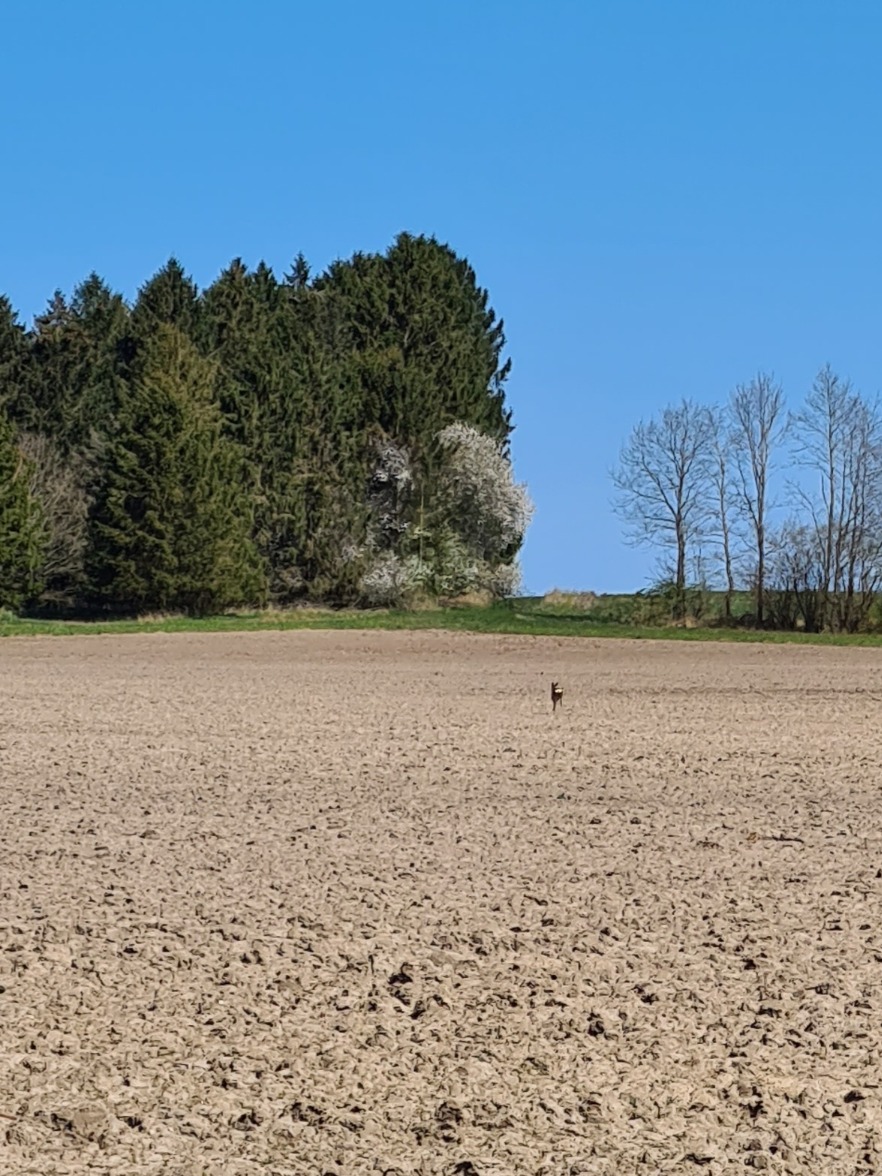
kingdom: Animalia
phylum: Chordata
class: Mammalia
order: Artiodactyla
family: Cervidae
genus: Capreolus
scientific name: Capreolus capreolus
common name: Rådyr
